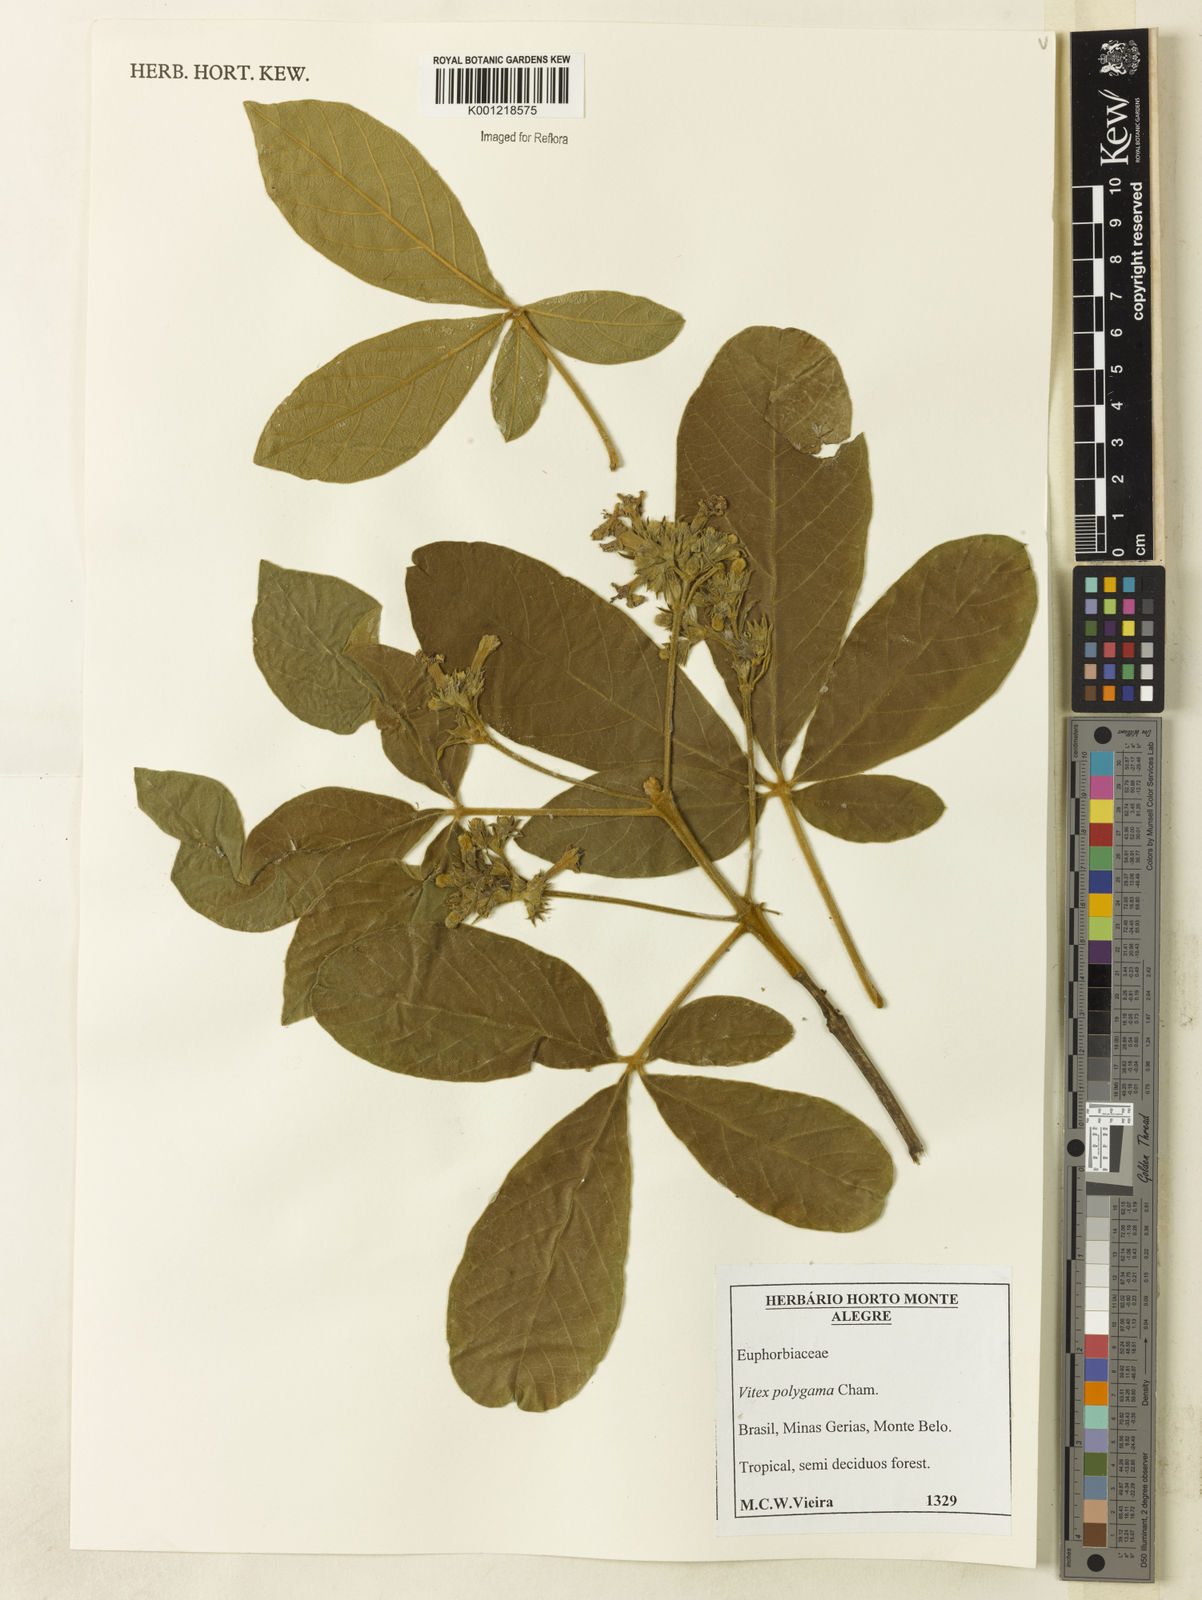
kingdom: Plantae
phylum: Tracheophyta
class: Magnoliopsida
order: Lamiales
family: Lamiaceae
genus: Vitex
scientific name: Vitex polygama
